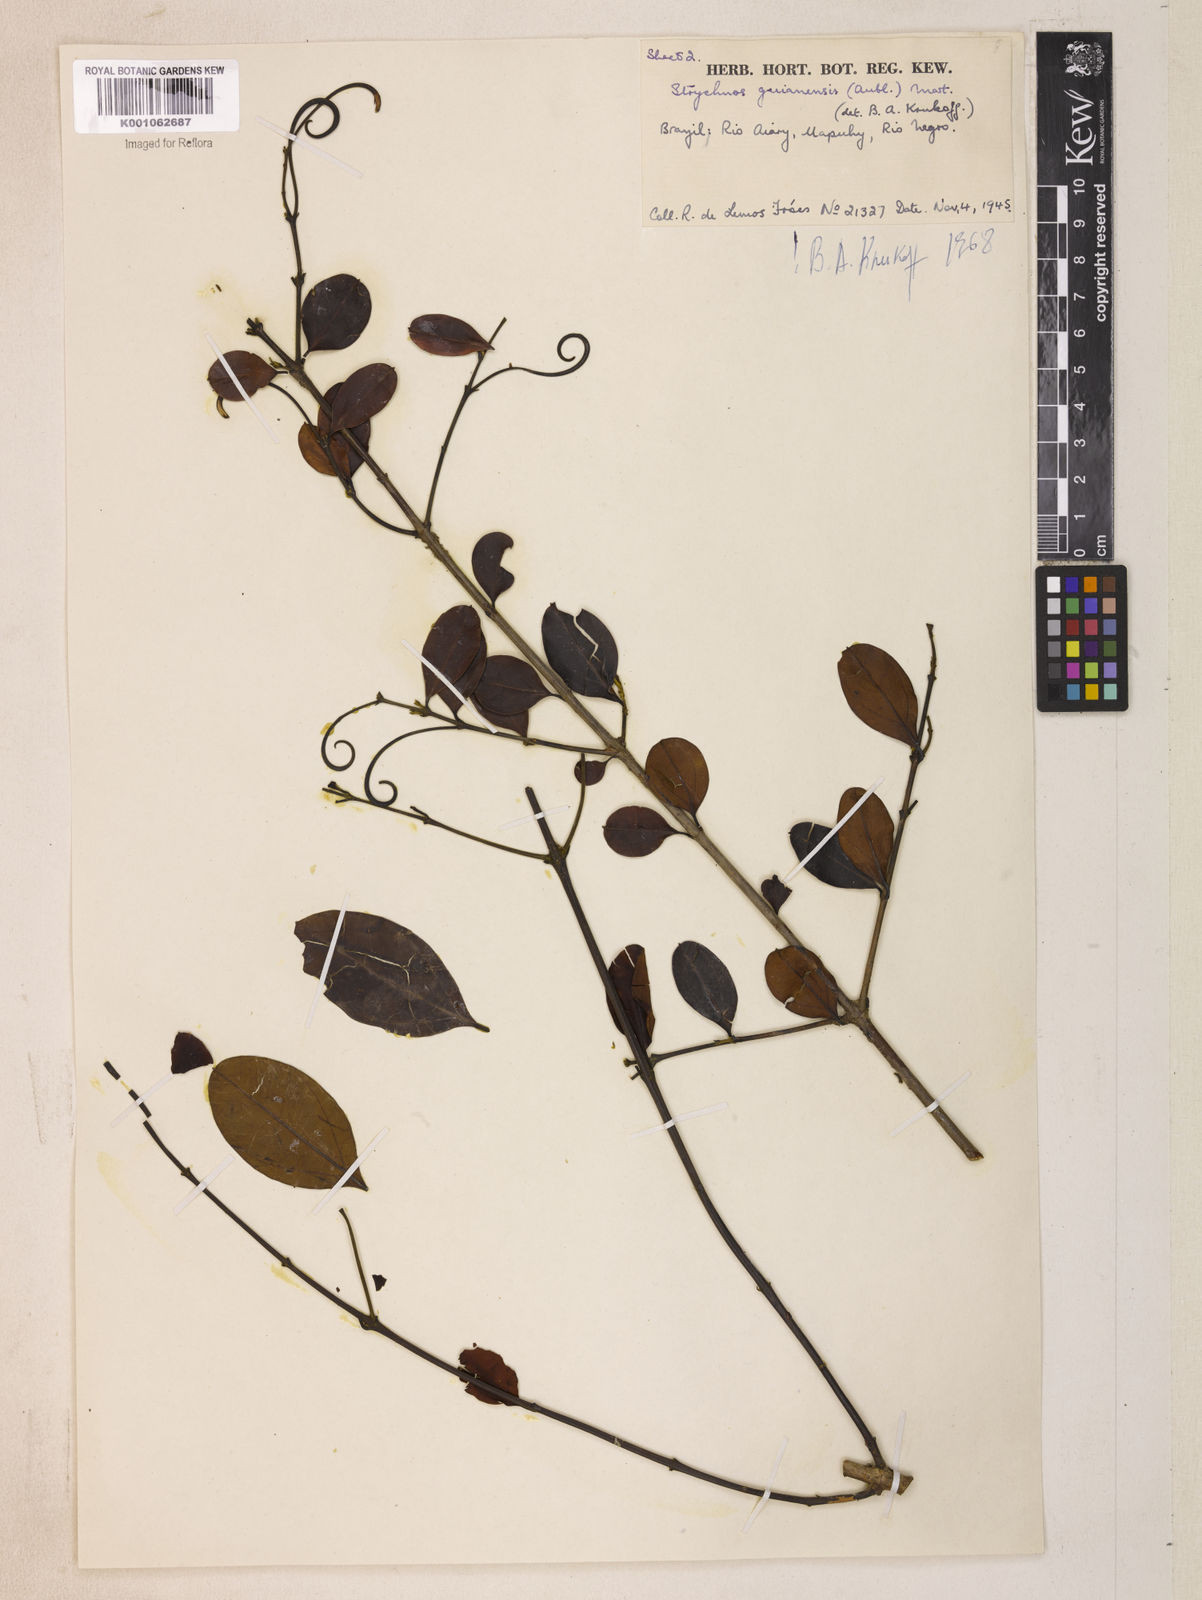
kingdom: Plantae
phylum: Tracheophyta
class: Magnoliopsida
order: Gentianales
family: Loganiaceae
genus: Strychnos
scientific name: Strychnos guianensis
